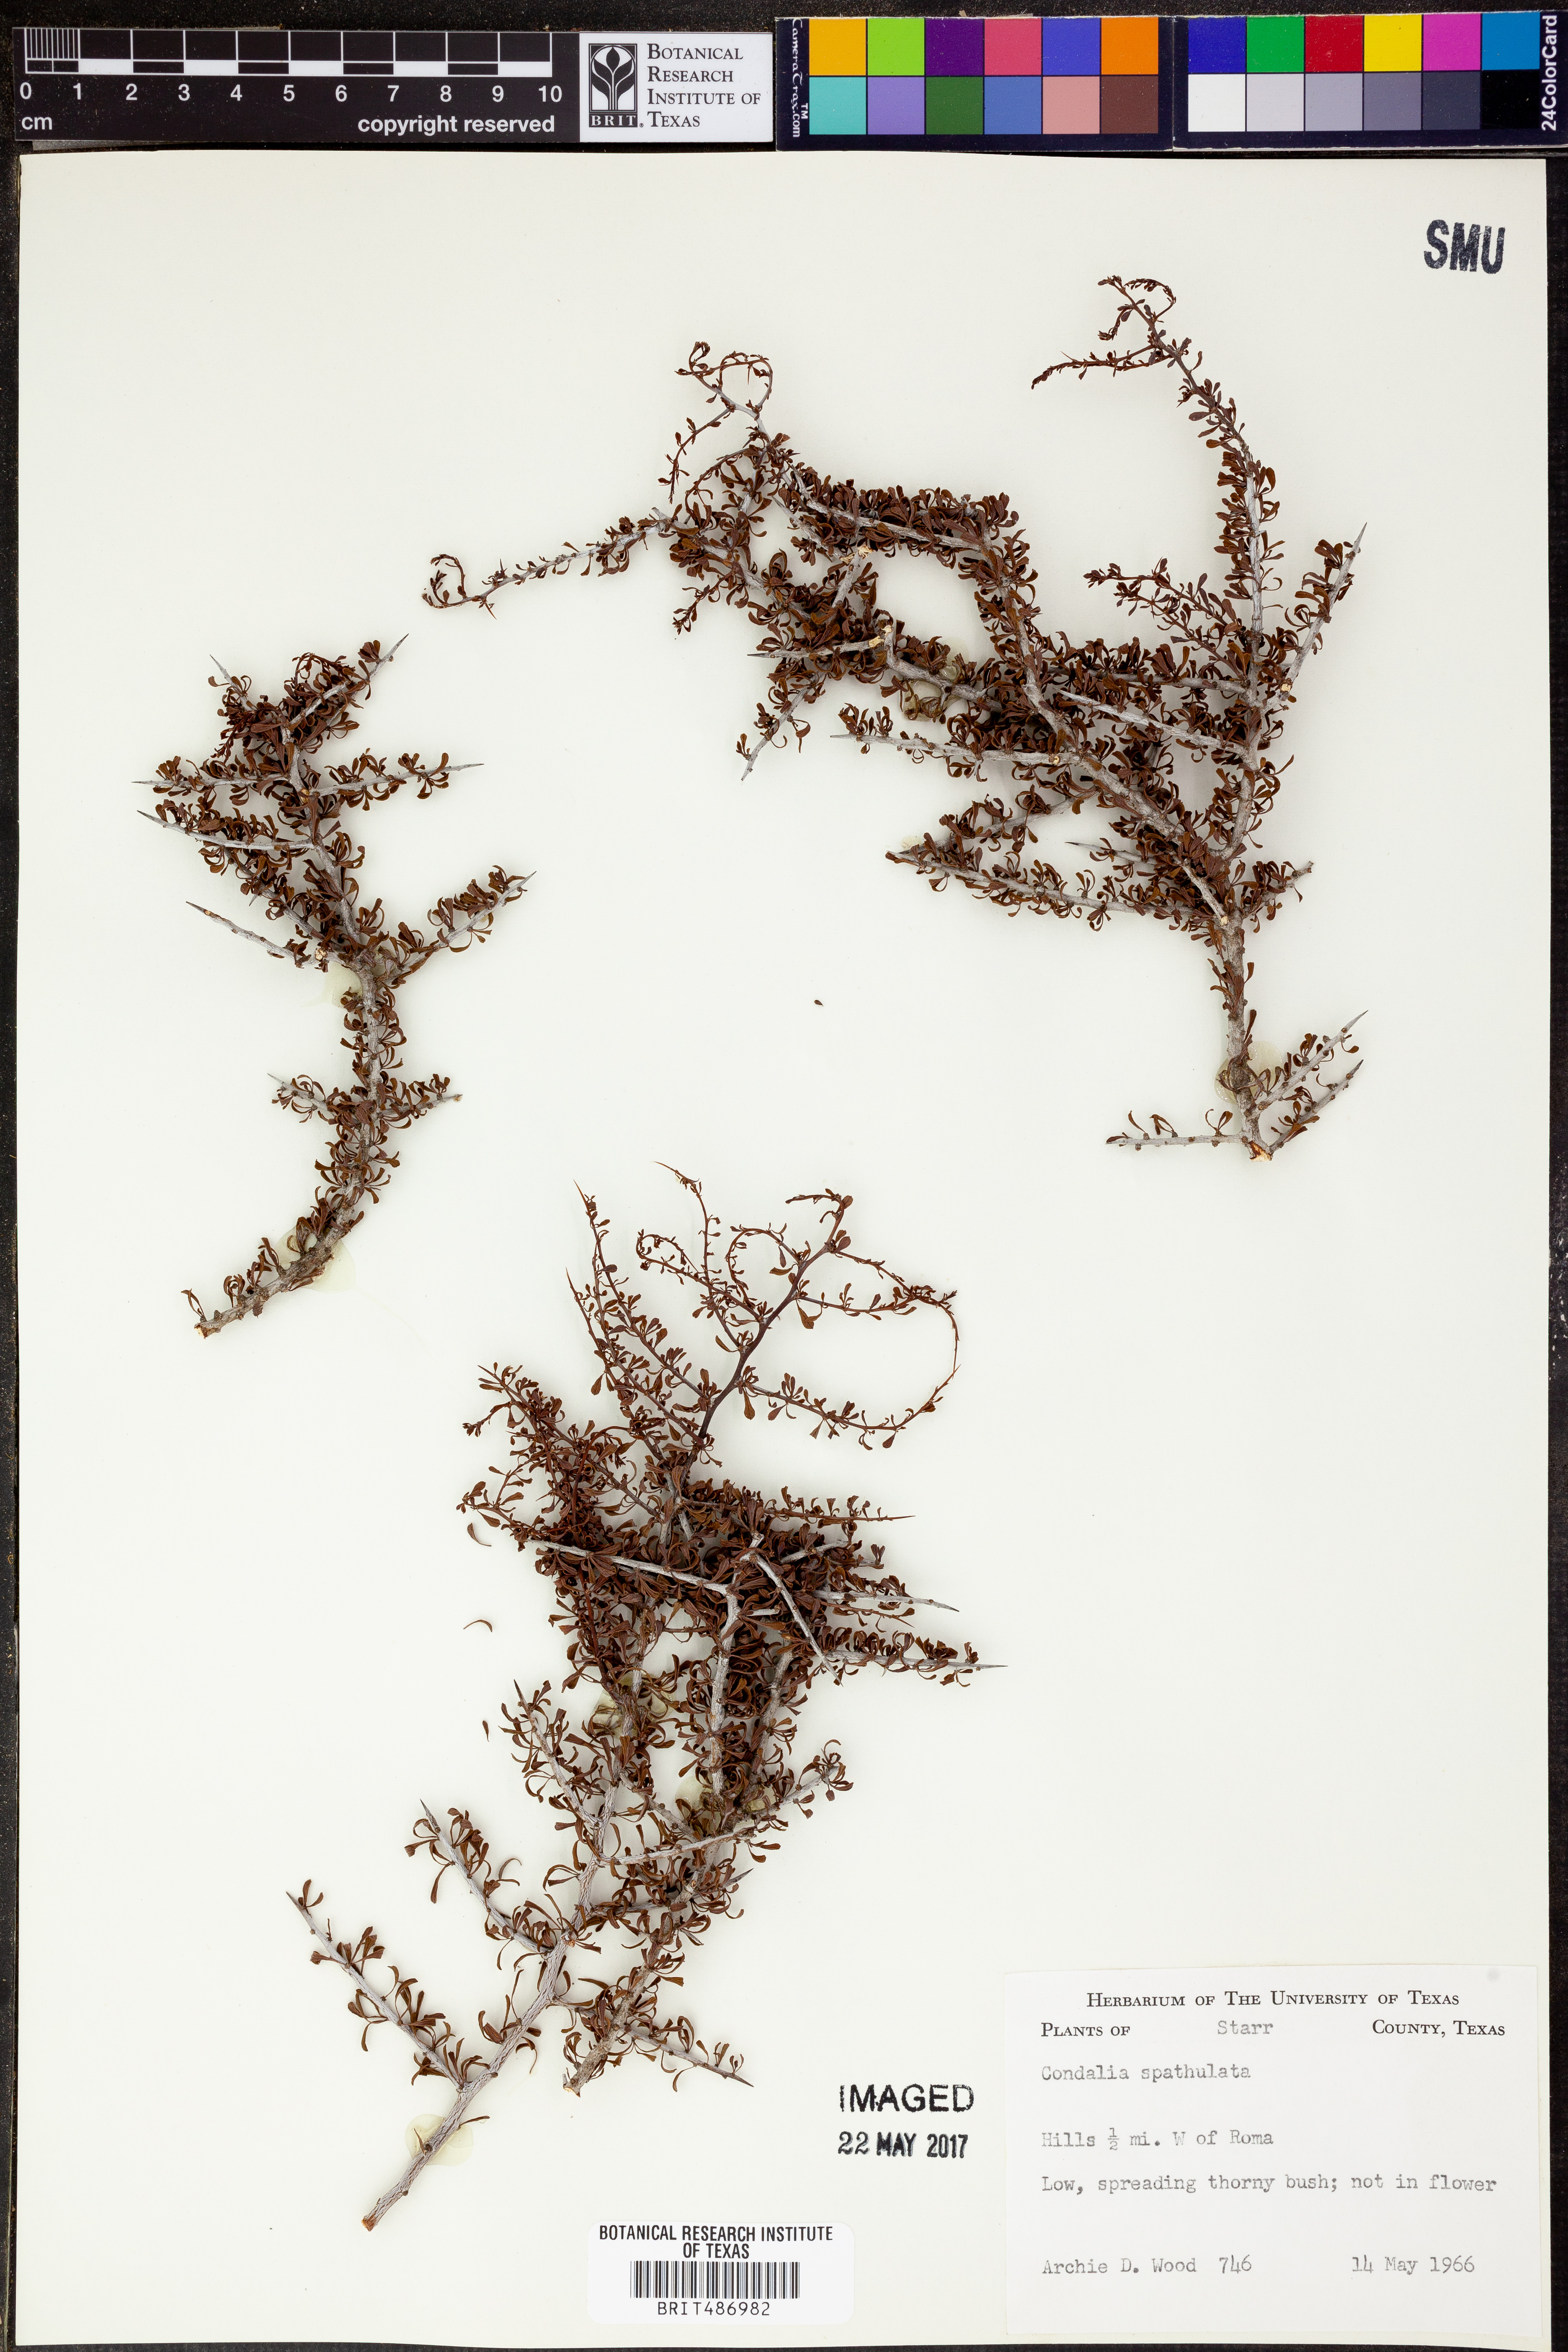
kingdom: Plantae
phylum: Tracheophyta
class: Magnoliopsida
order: Rosales
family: Rhamnaceae
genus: Condalia
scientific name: Condalia spathulata
